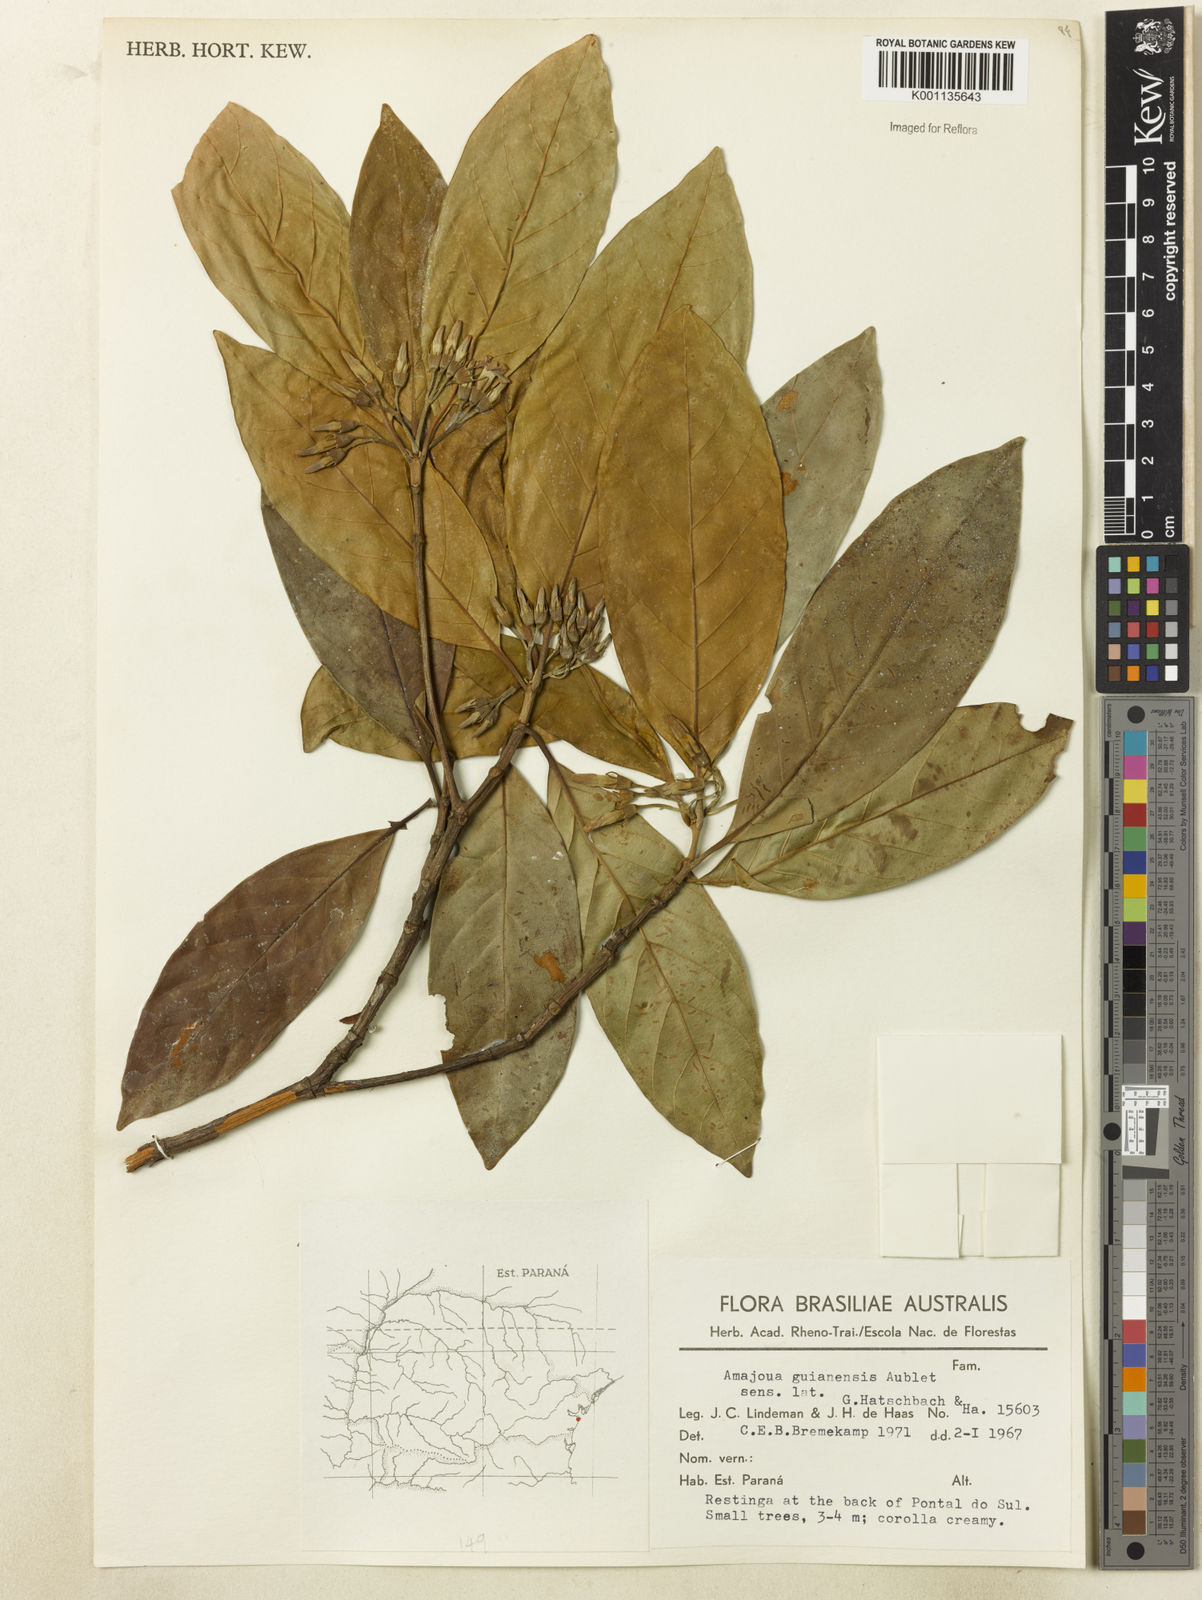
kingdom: Plantae
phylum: Tracheophyta
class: Magnoliopsida
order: Gentianales
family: Rubiaceae
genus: Amaioua
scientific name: Amaioua intermedia
